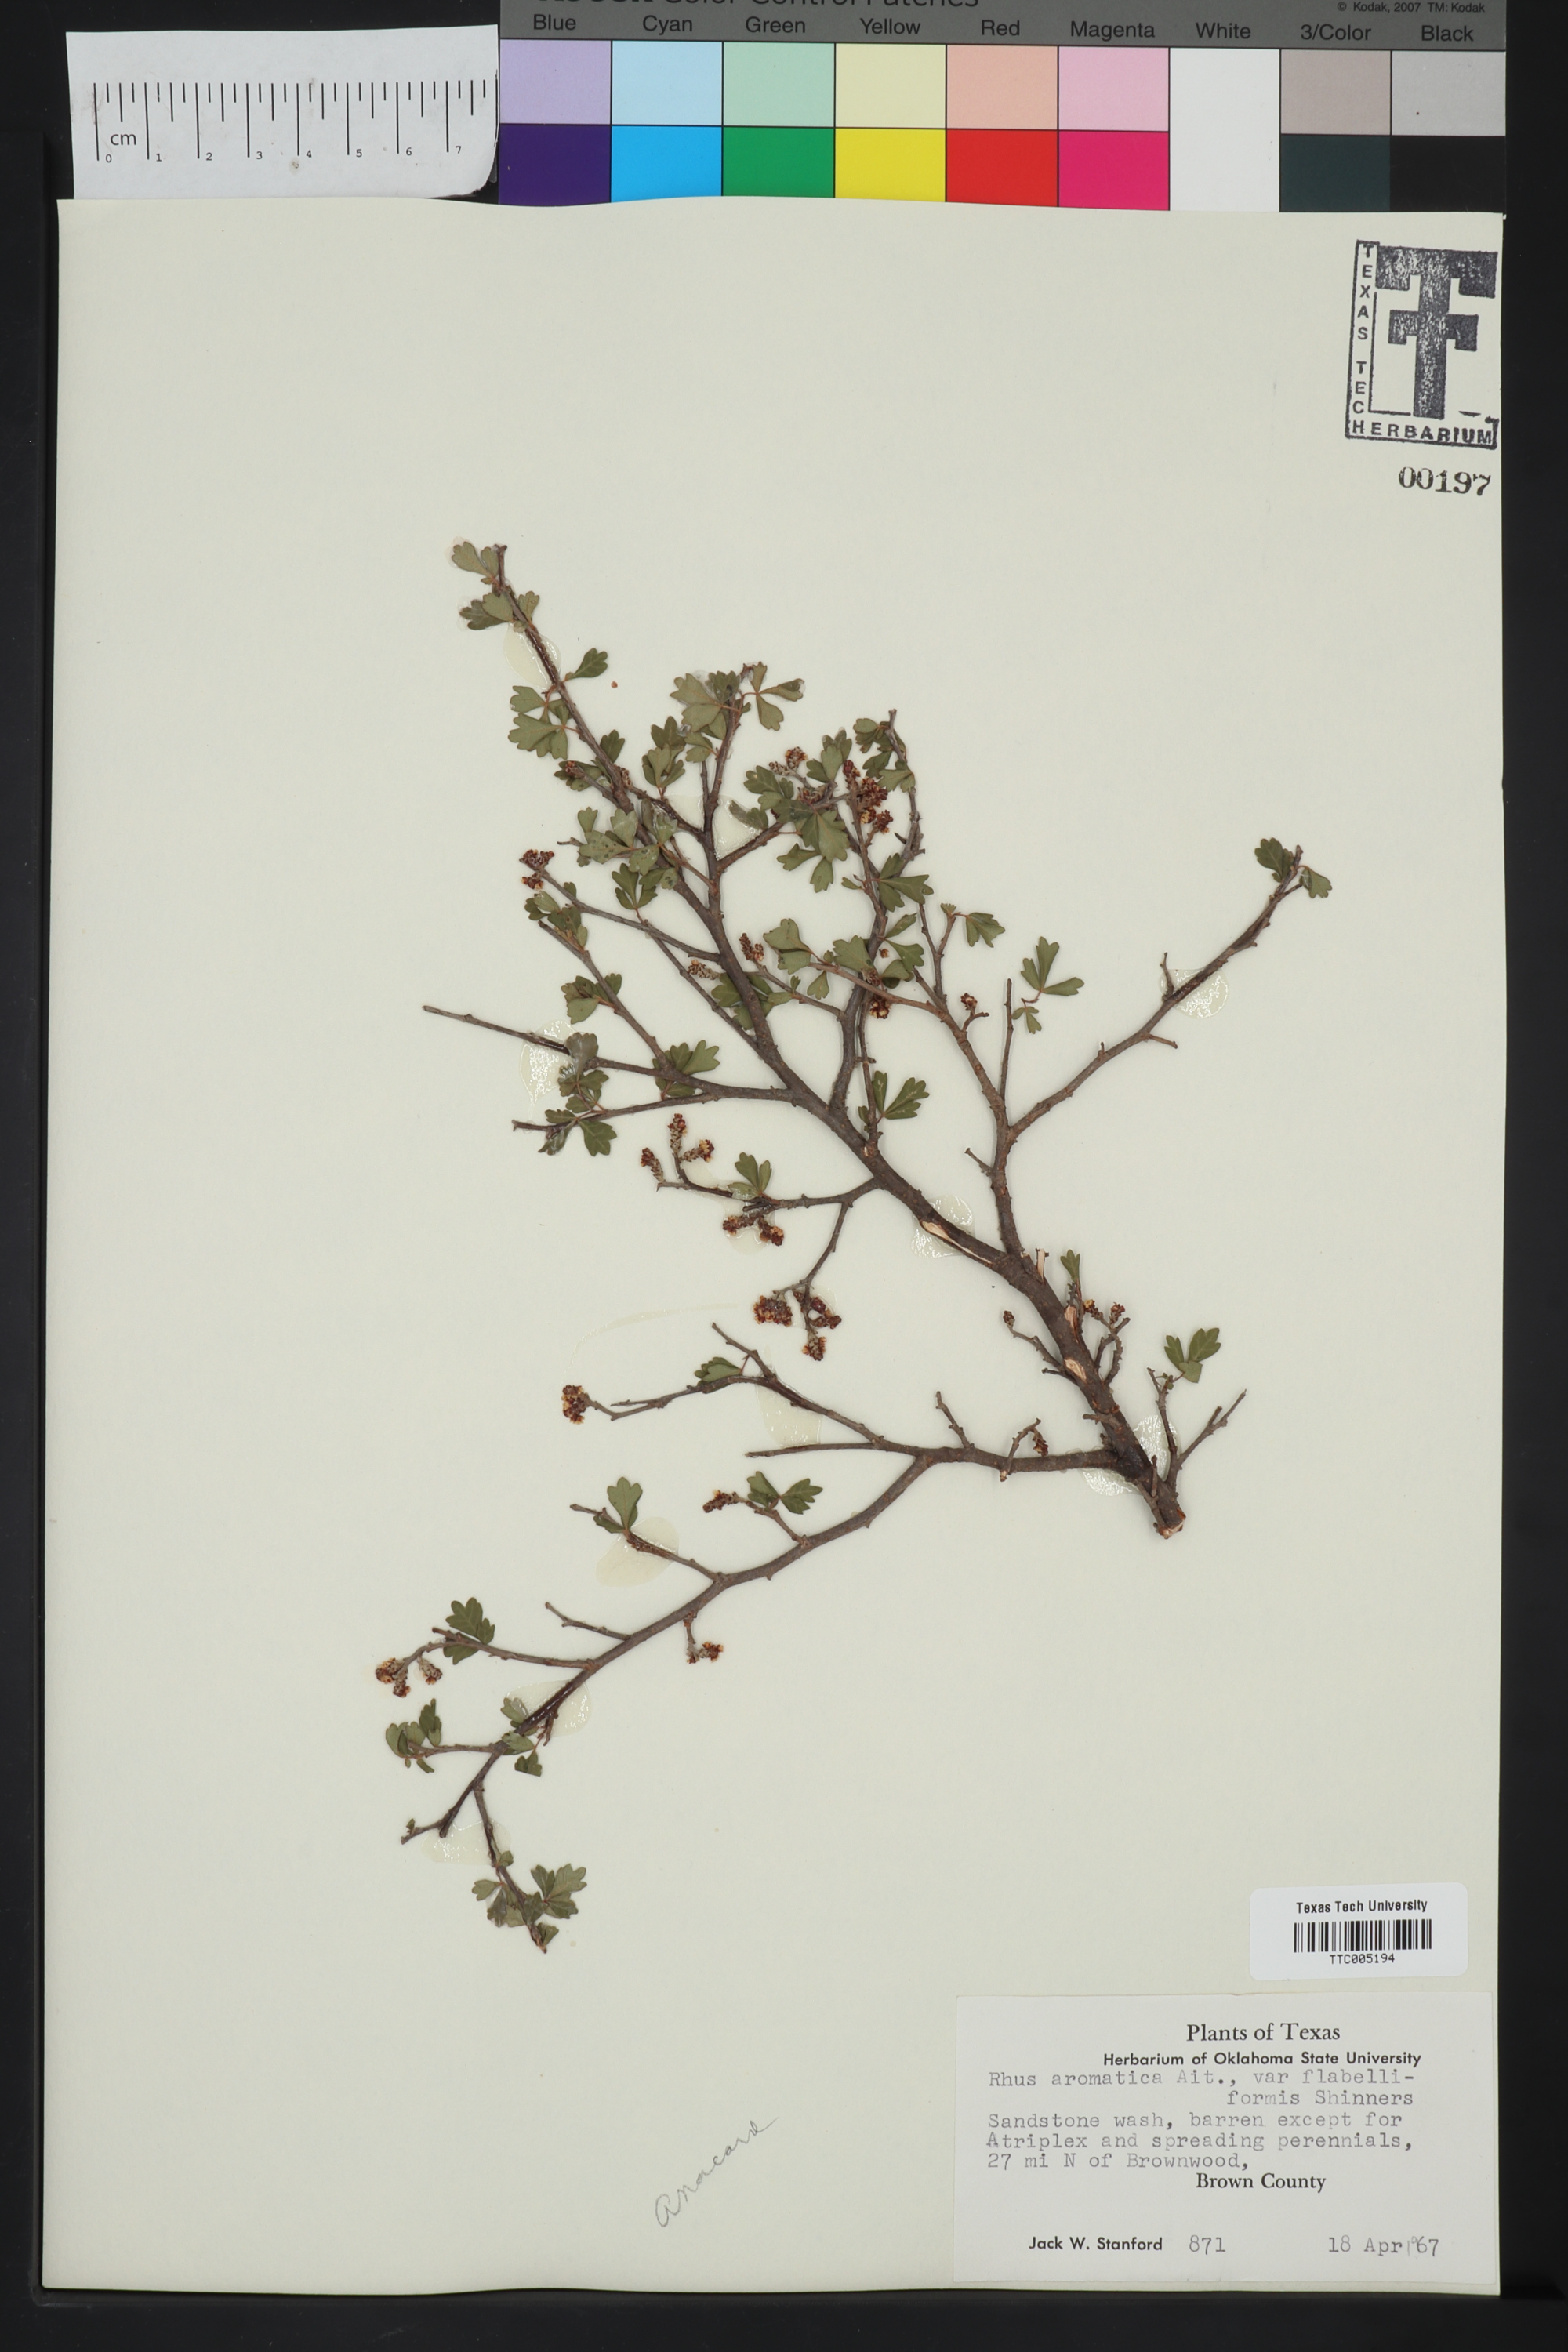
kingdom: Plantae
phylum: Tracheophyta
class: Magnoliopsida
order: Sapindales
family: Anacardiaceae
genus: Rhus
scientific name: Rhus trilobata
